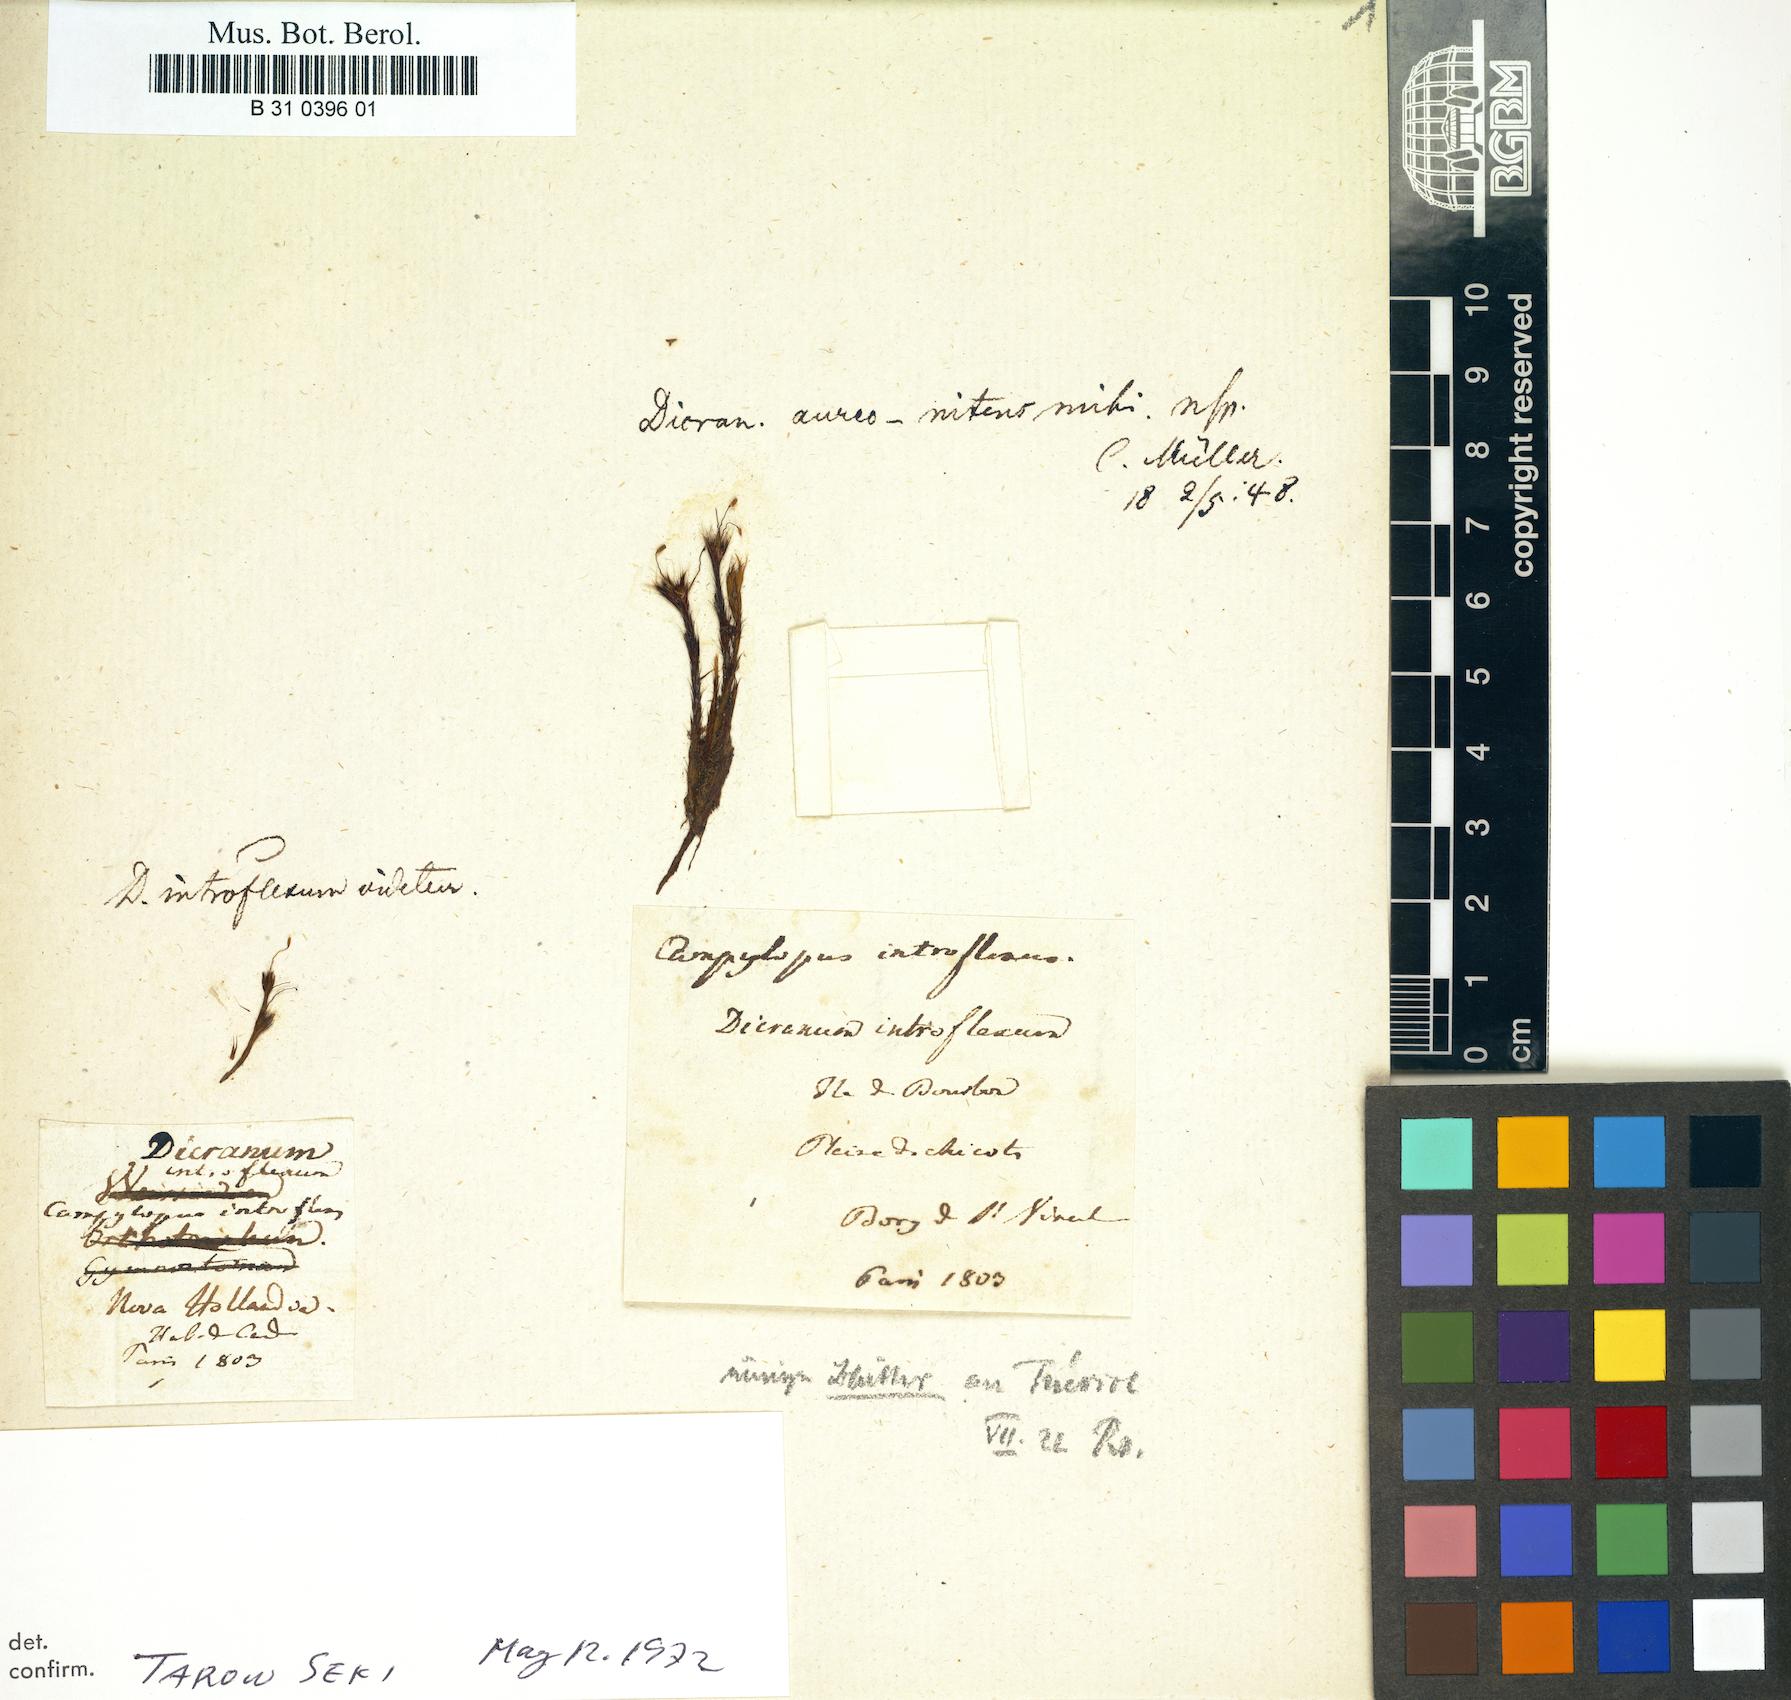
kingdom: Plantae
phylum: Bryophyta
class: Bryopsida
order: Dicranales
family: Leucobryaceae
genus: Campylopus
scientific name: Campylopus introflexus
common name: Heath star moss
